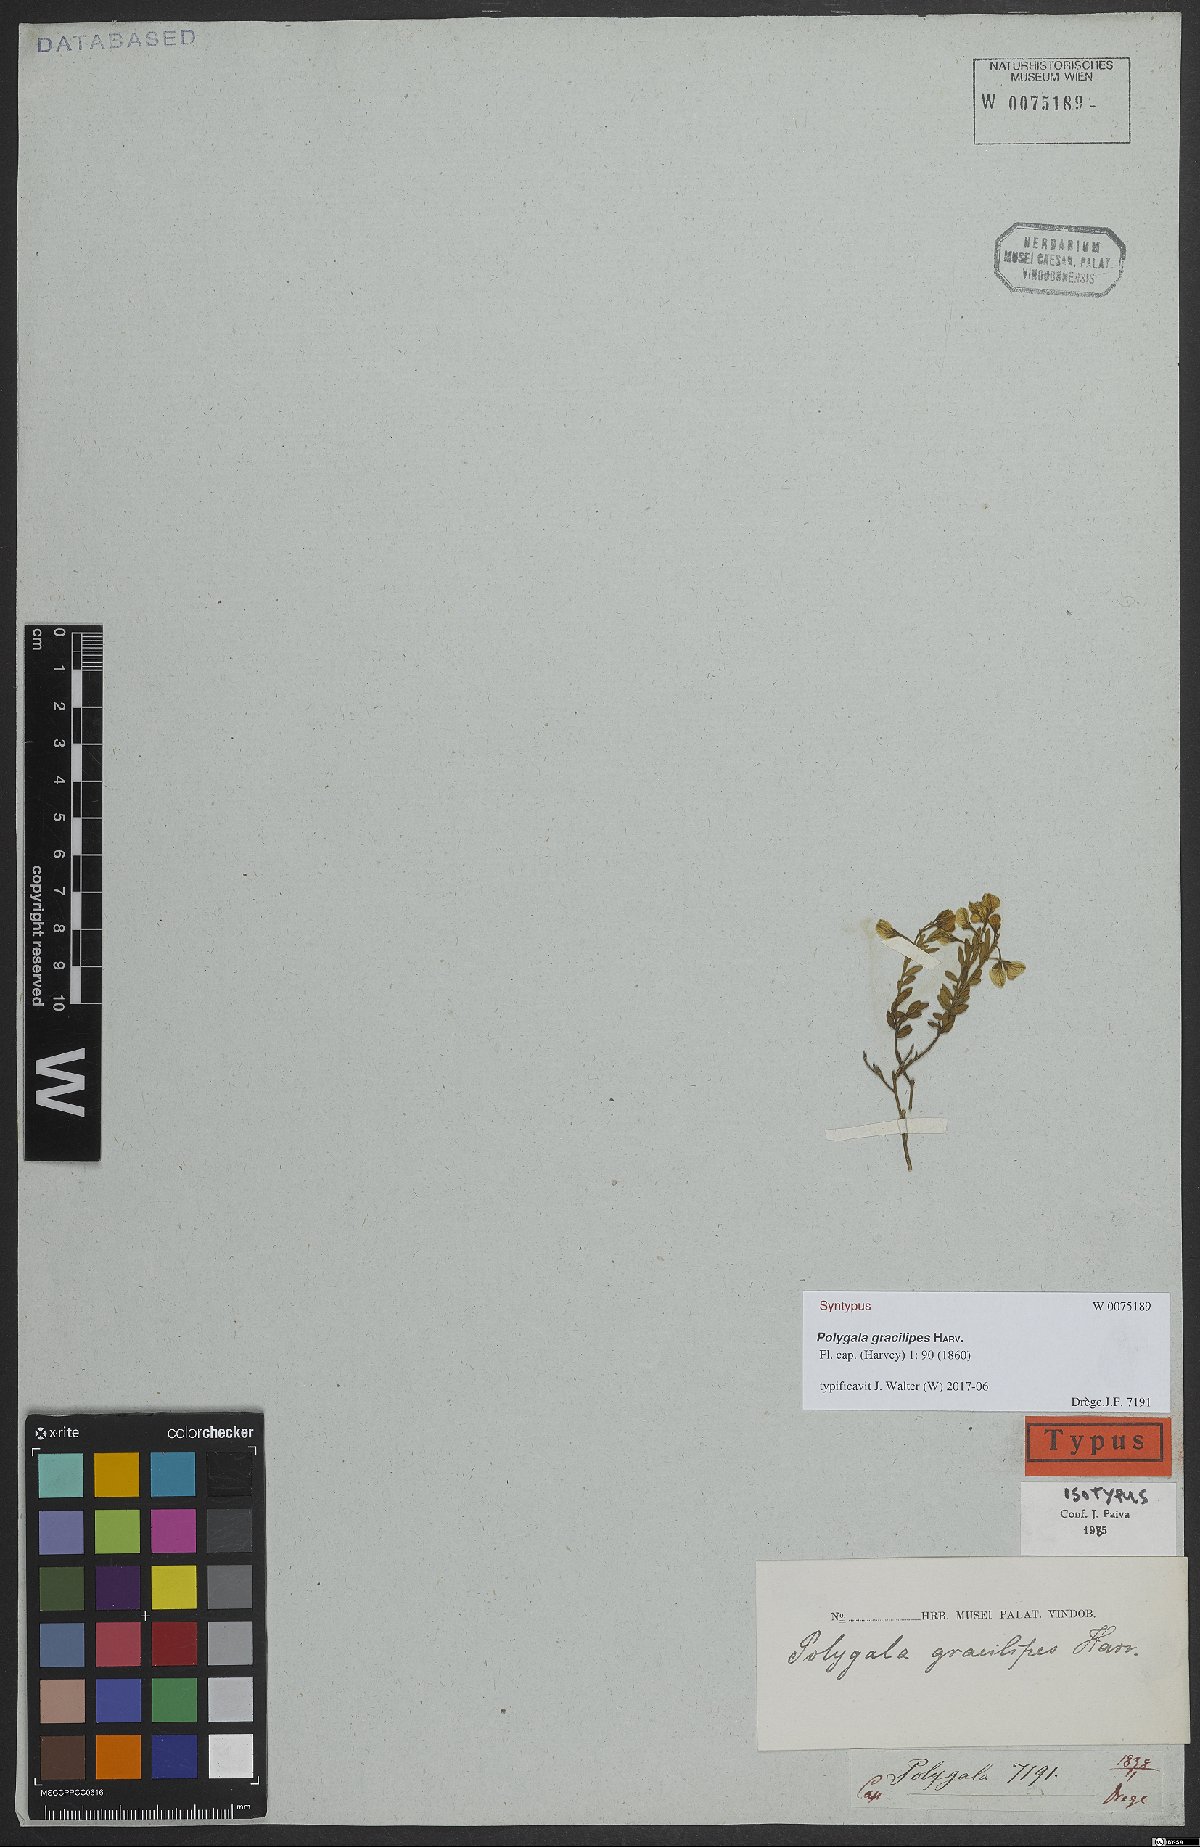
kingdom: Plantae
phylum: Tracheophyta
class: Magnoliopsida
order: Fabales
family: Polygalaceae
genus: Polygala
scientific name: Polygala gracilipes
